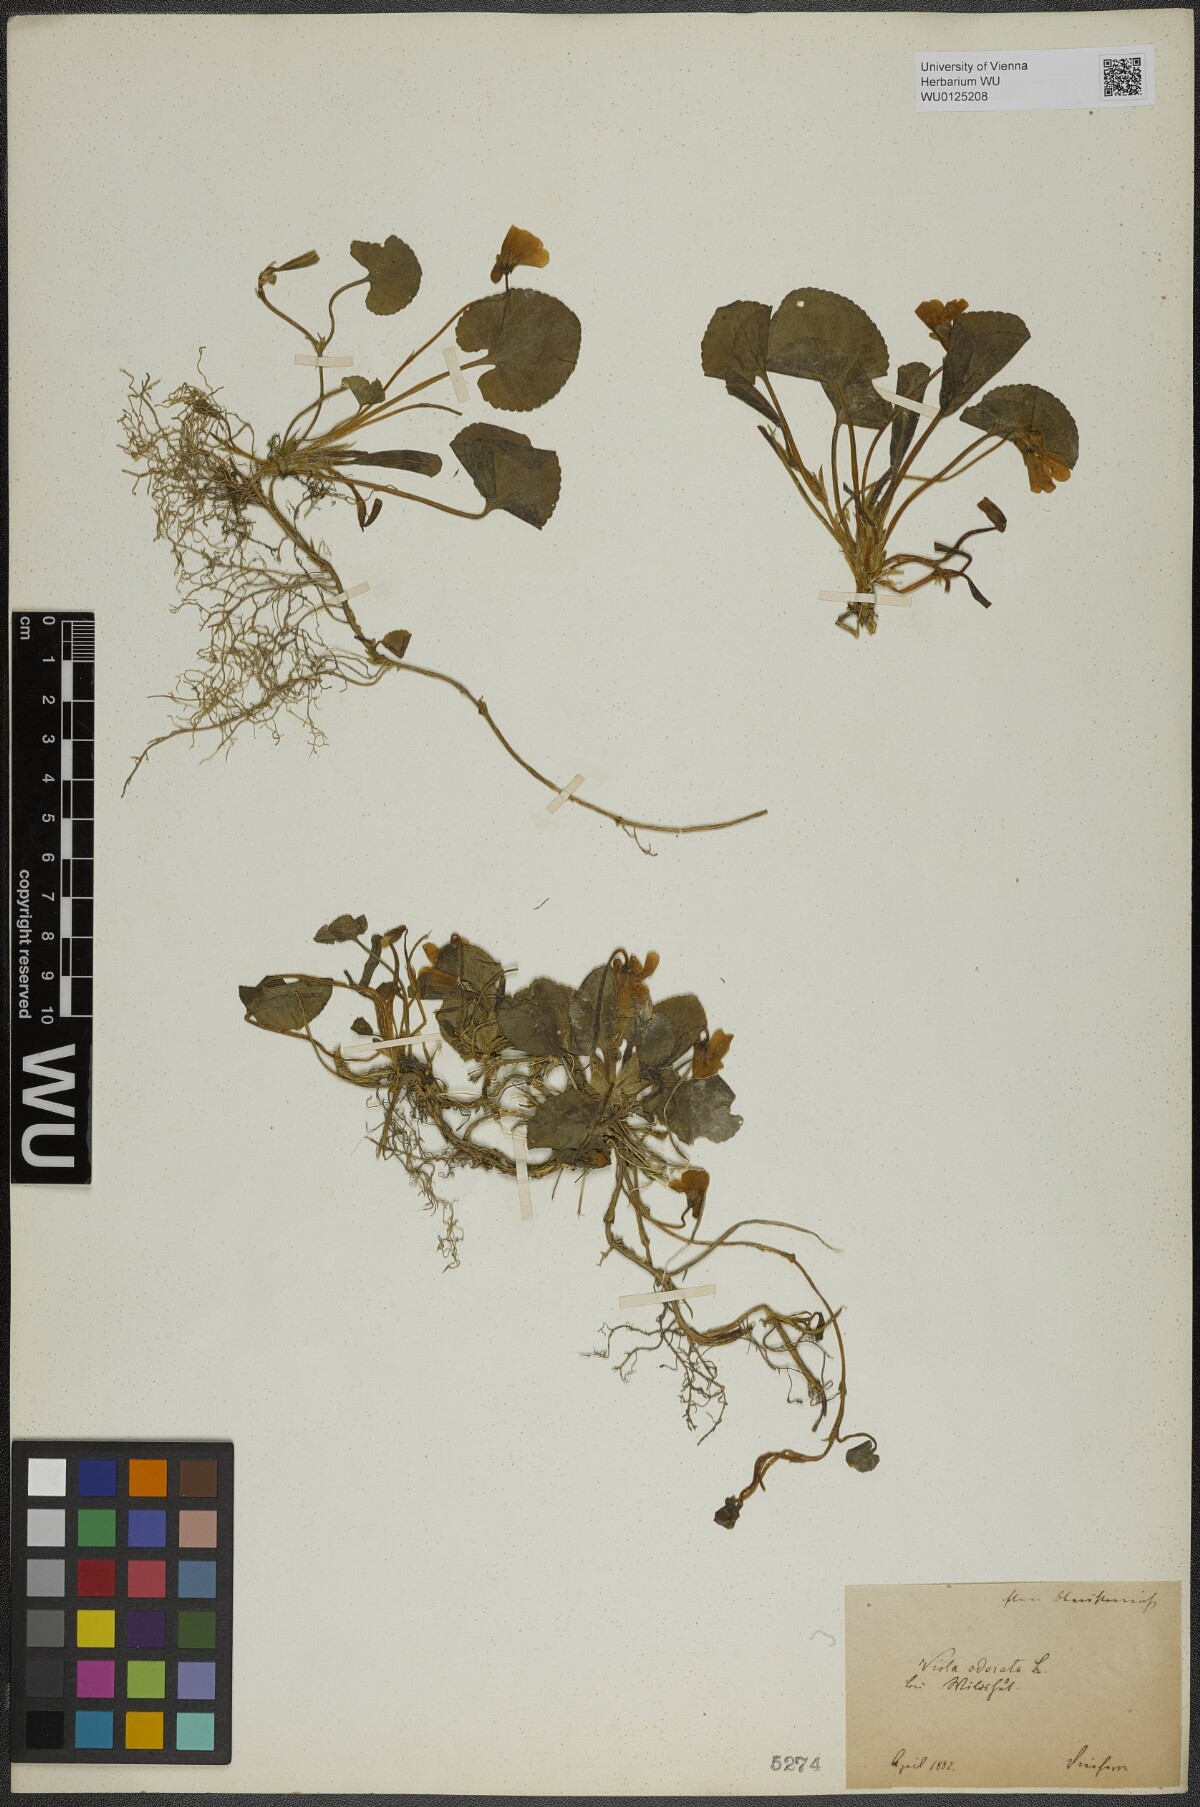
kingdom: Plantae
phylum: Tracheophyta
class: Magnoliopsida
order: Malpighiales
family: Violaceae
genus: Viola
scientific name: Viola odorata
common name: Sweet violet
